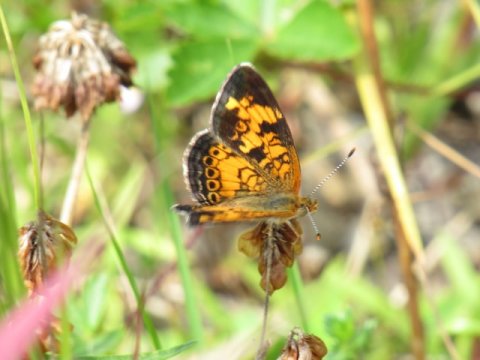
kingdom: Animalia
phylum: Arthropoda
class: Insecta
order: Lepidoptera
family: Nymphalidae
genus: Phyciodes
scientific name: Phyciodes tharos
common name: Pearl Crescent
